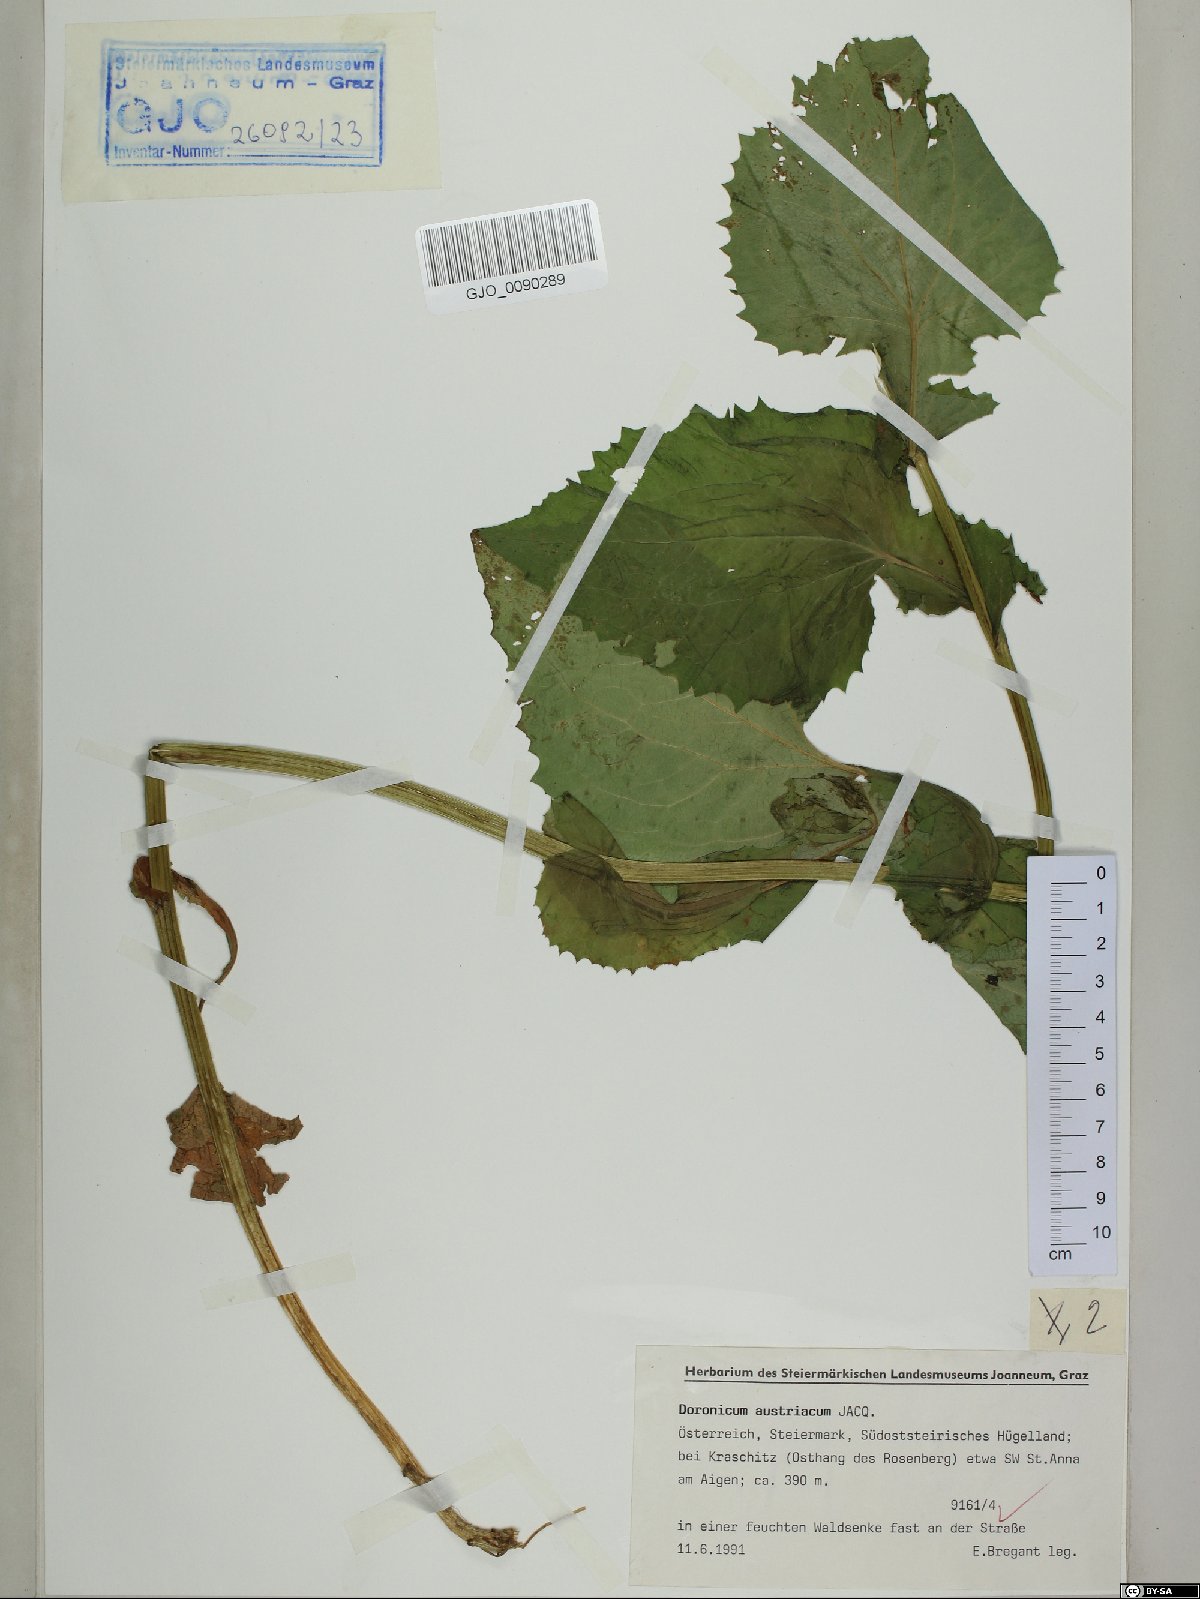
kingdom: Plantae
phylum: Tracheophyta
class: Magnoliopsida
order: Asterales
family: Asteraceae
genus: Doronicum
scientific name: Doronicum austriacum
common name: Austrian leopard's-bane
